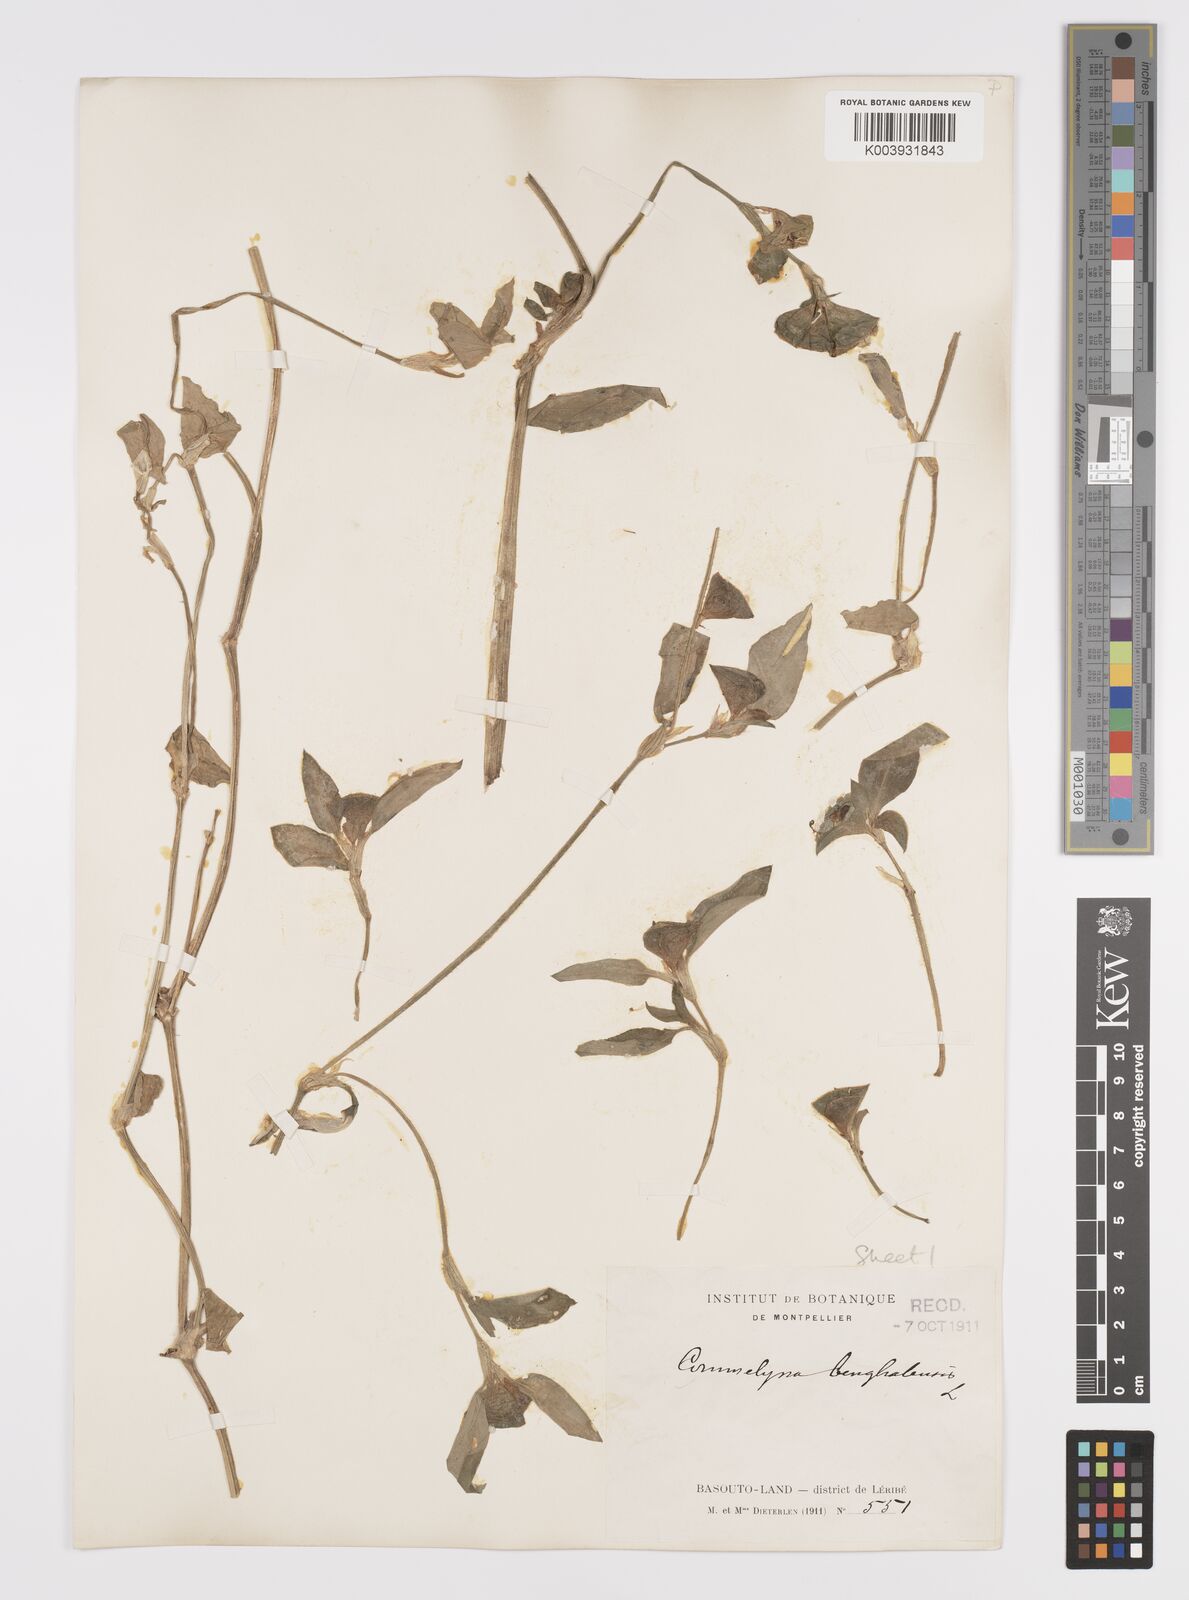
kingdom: Plantae
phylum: Tracheophyta
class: Liliopsida
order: Commelinales
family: Commelinaceae
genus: Commelina
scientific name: Commelina benghalensis
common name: Jio
